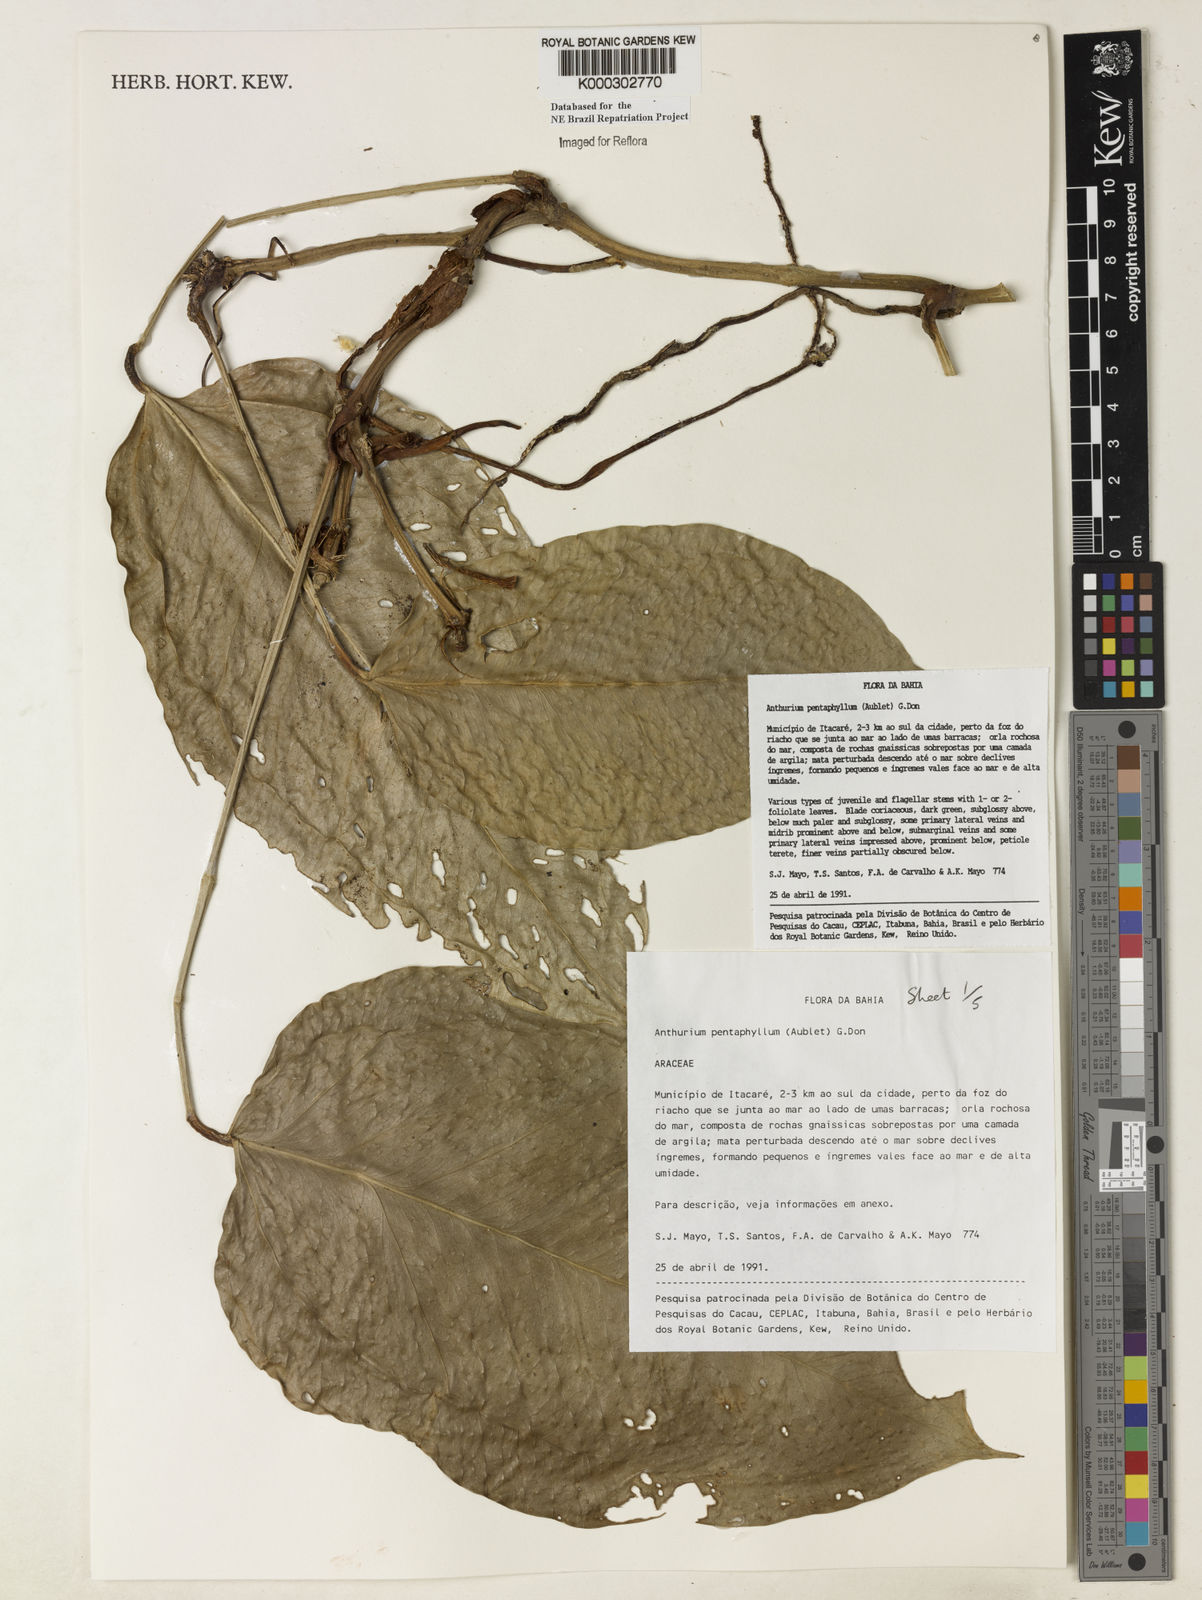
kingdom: Plantae
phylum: Tracheophyta
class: Liliopsida
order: Alismatales
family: Araceae
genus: Anthurium
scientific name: Anthurium pentaphyllum
